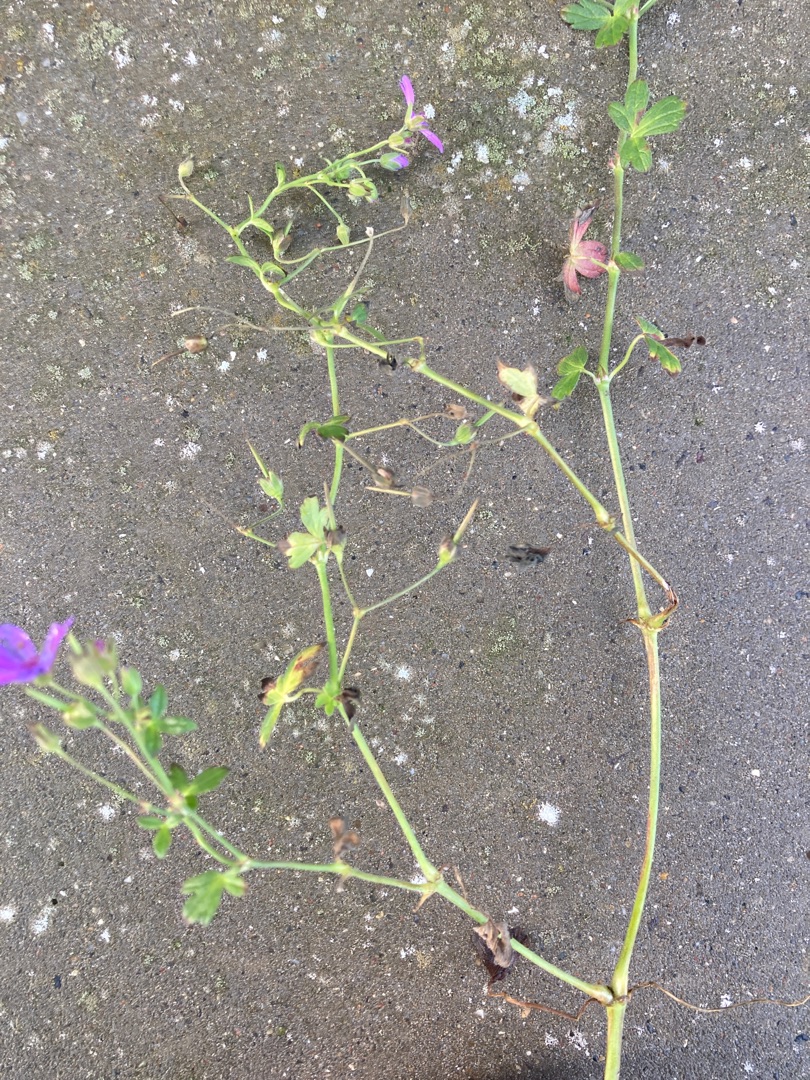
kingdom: Plantae
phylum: Tracheophyta
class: Magnoliopsida
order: Geraniales
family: Geraniaceae
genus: Geranium
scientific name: Geranium pyrenaicum
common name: Pyrenæisk storkenæb
